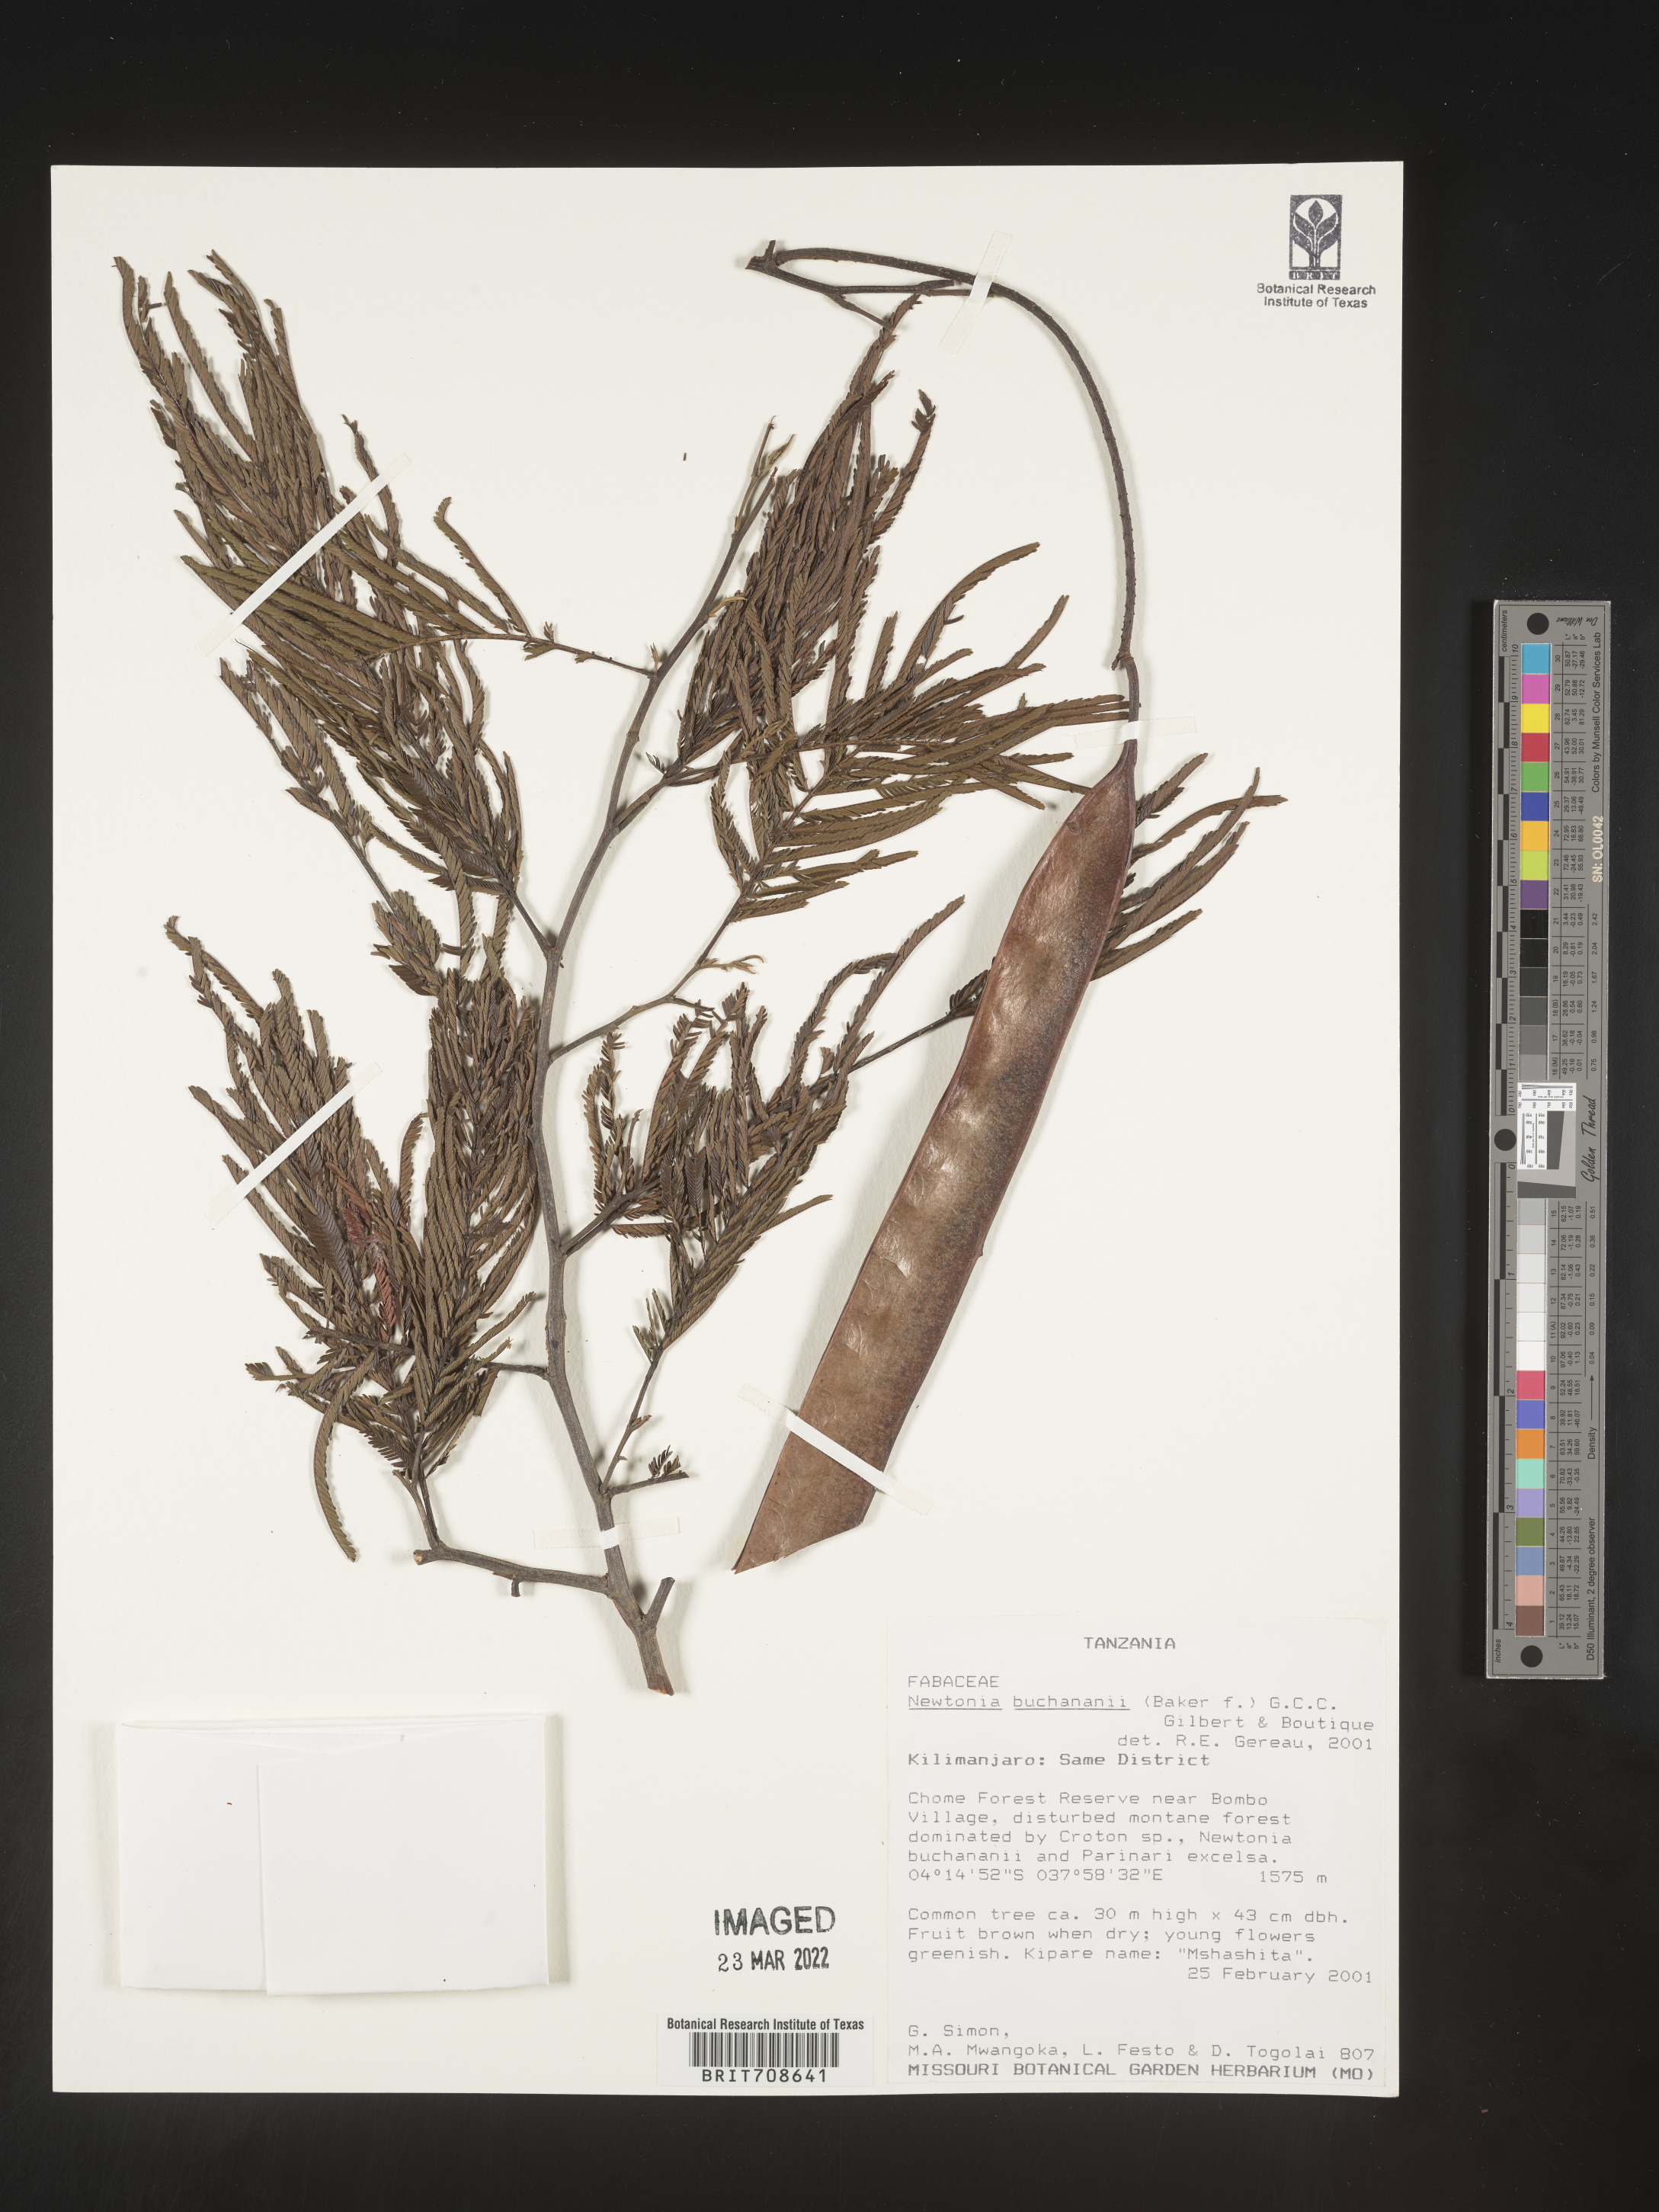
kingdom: Plantae
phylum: Tracheophyta
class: Magnoliopsida
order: Fabales
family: Fabaceae
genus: Newtonia
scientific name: Newtonia
